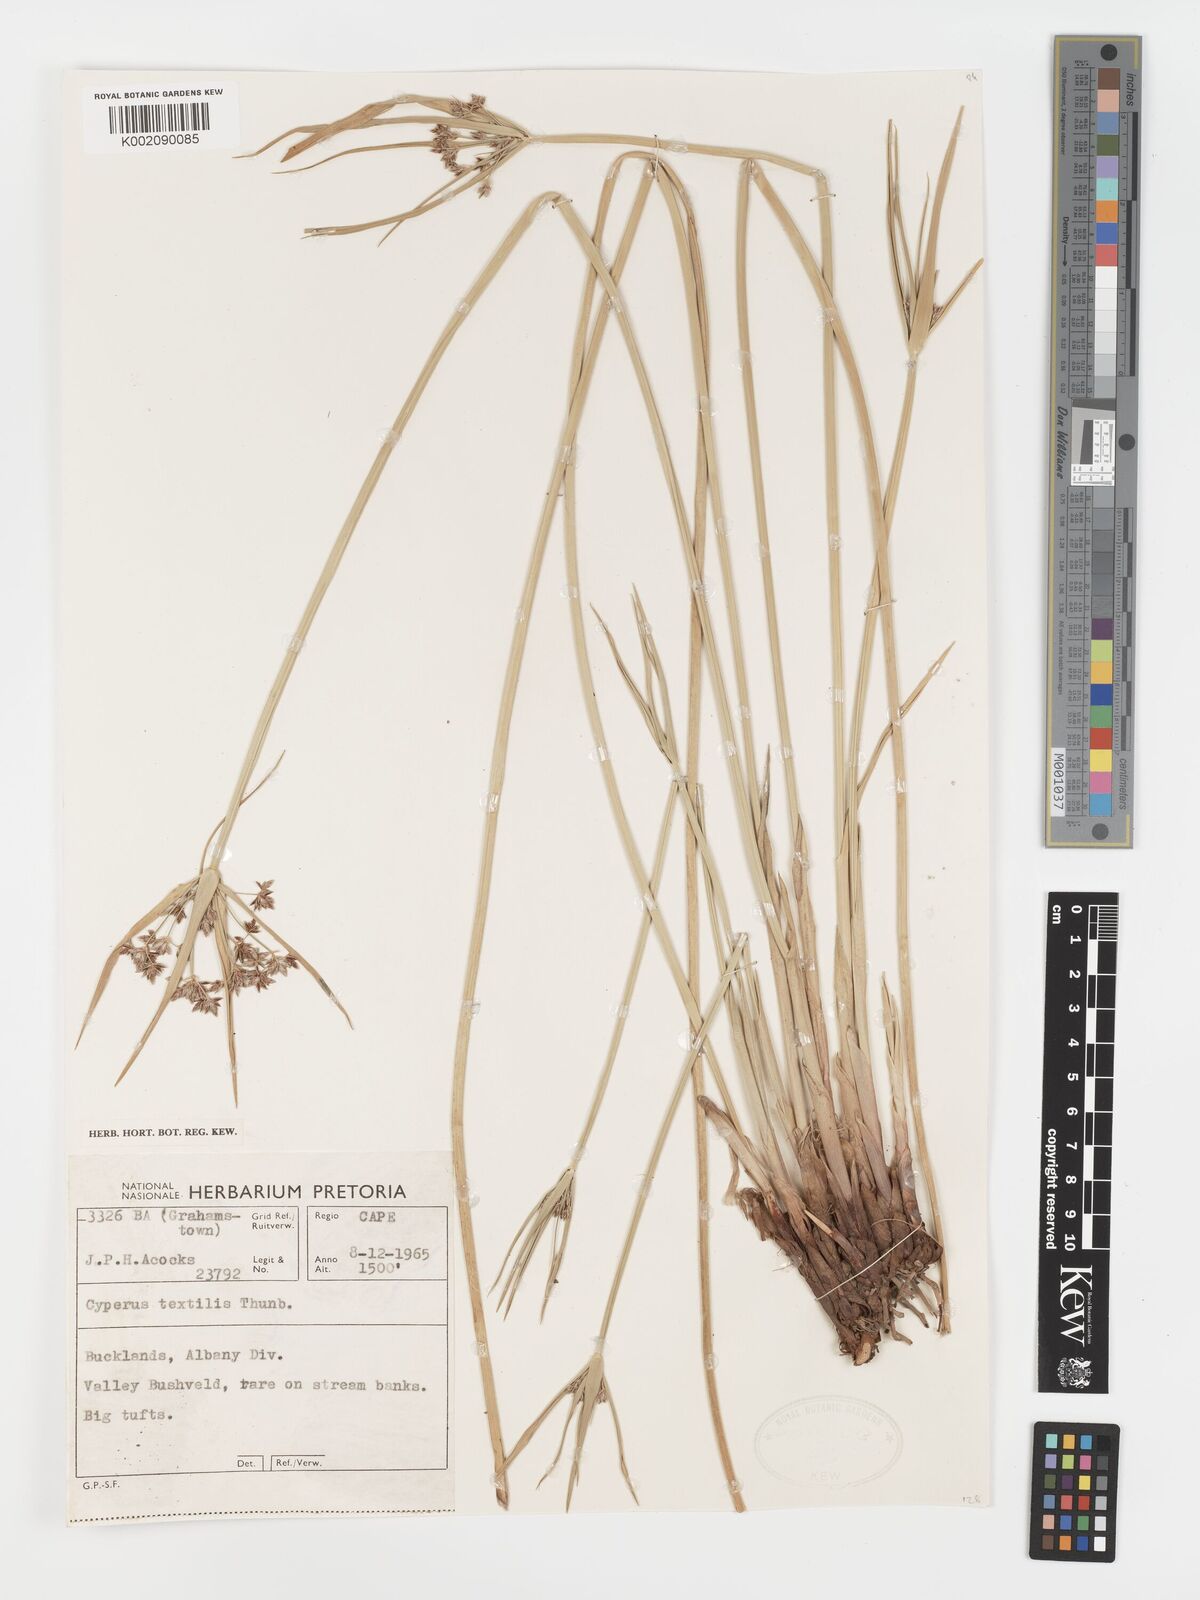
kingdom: Plantae
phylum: Tracheophyta
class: Liliopsida
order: Poales
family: Cyperaceae
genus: Cyperus
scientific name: Cyperus alternifolius
